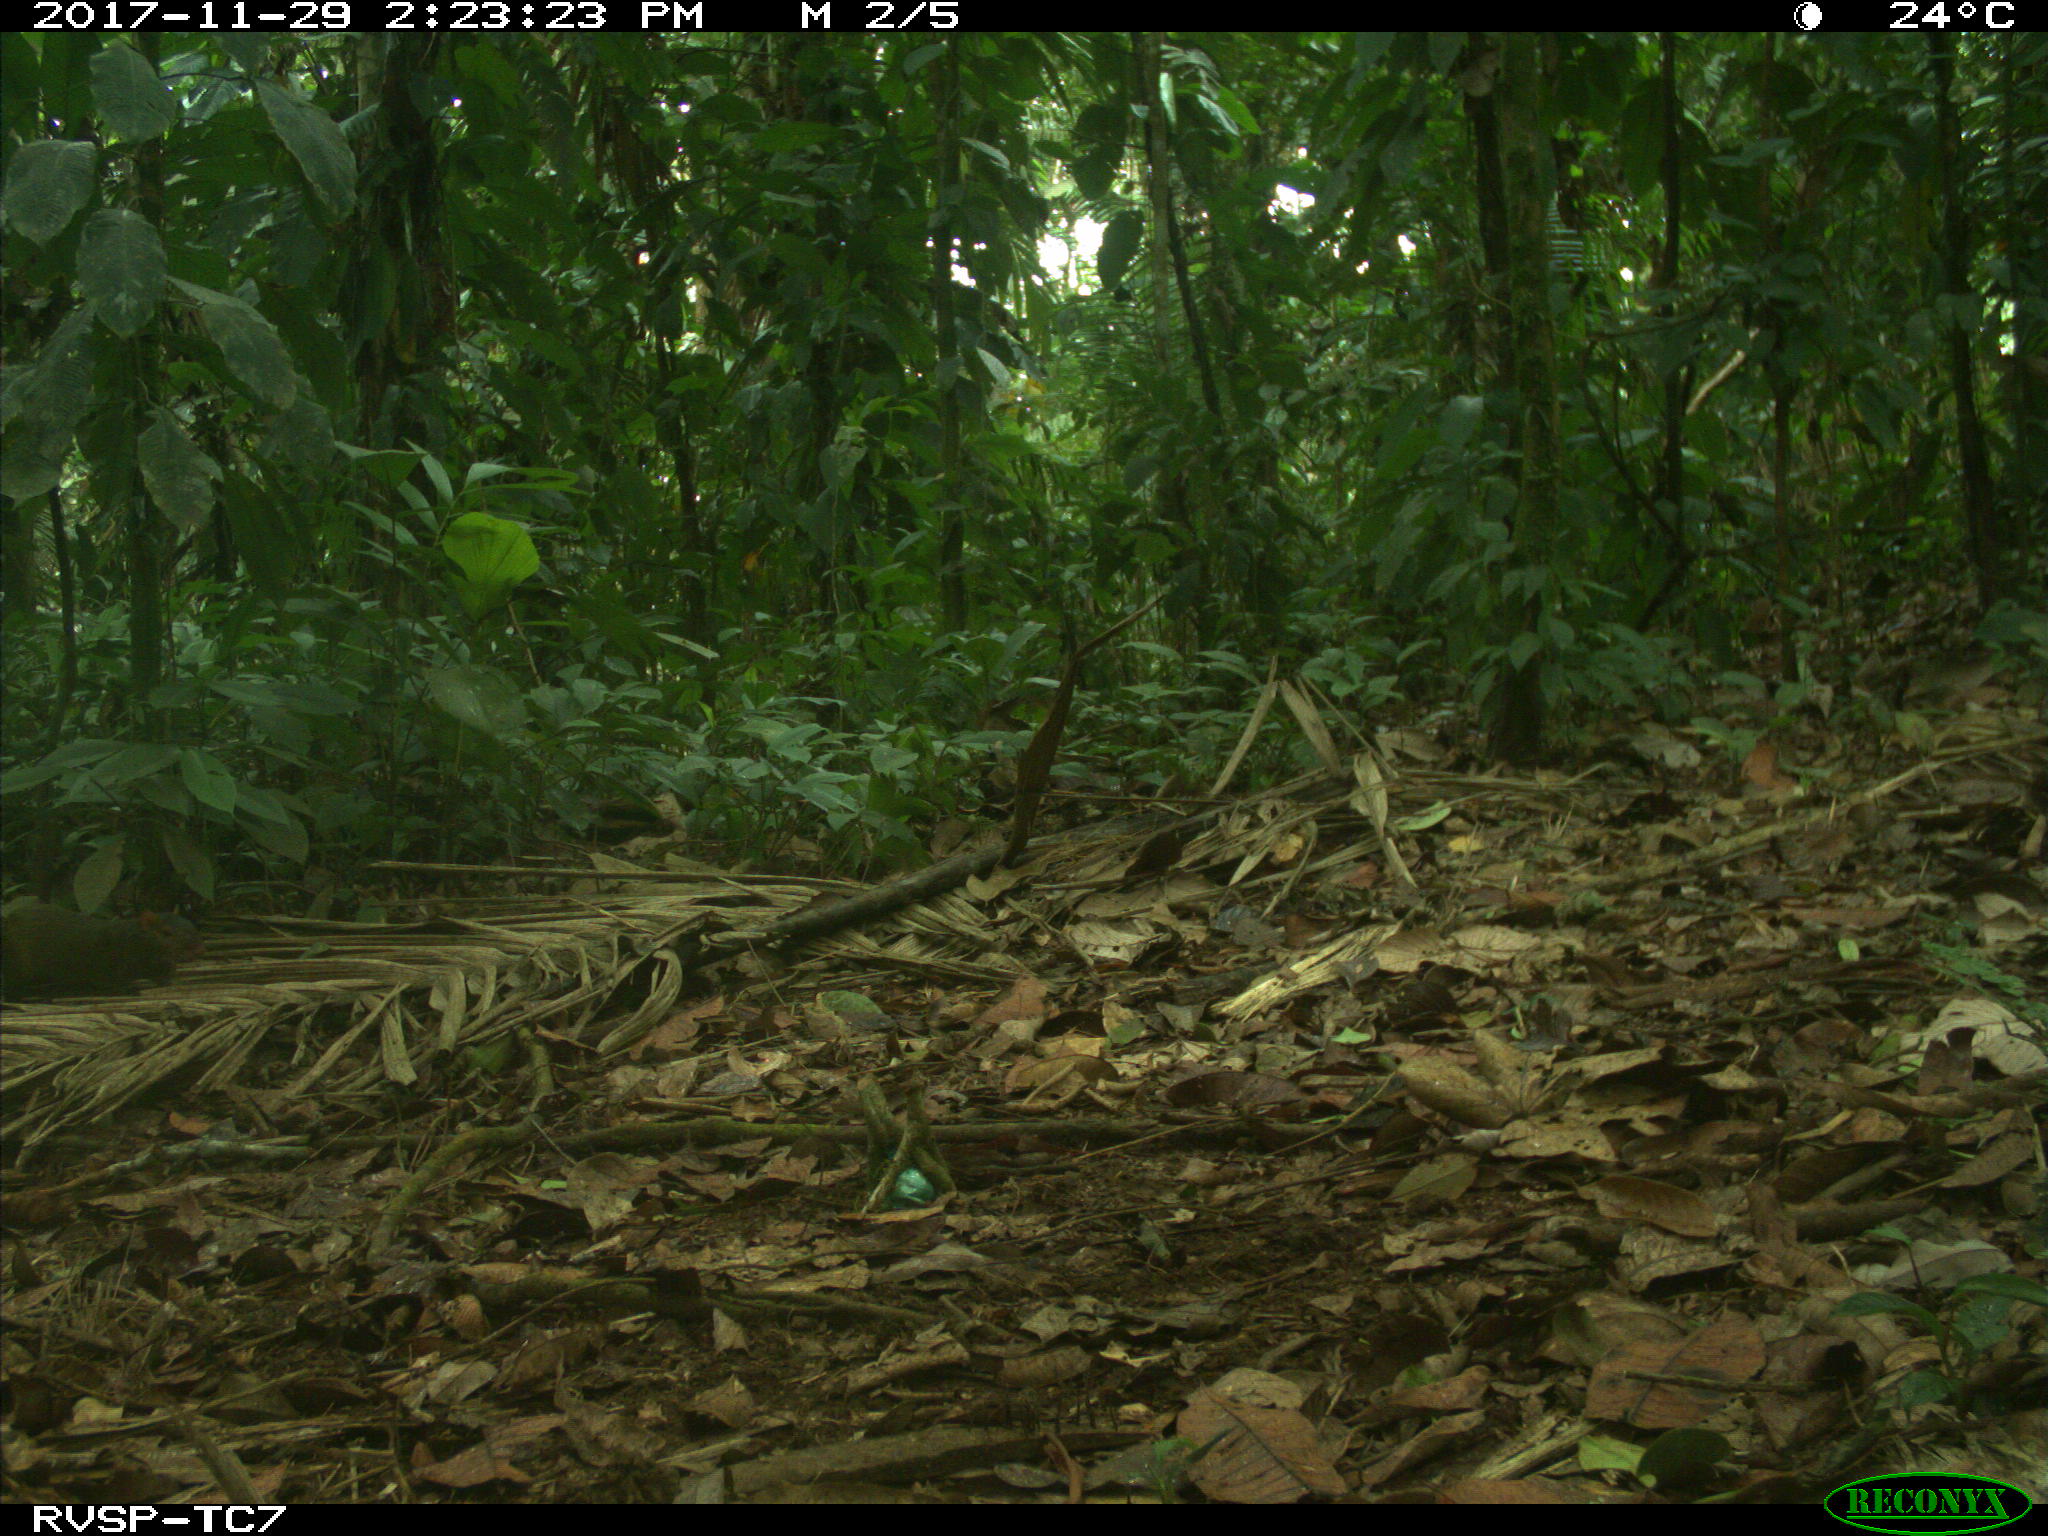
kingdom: Animalia
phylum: Chordata
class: Mammalia
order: Rodentia
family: Dasyproctidae
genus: Dasyprocta
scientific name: Dasyprocta punctata
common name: Central american agouti
